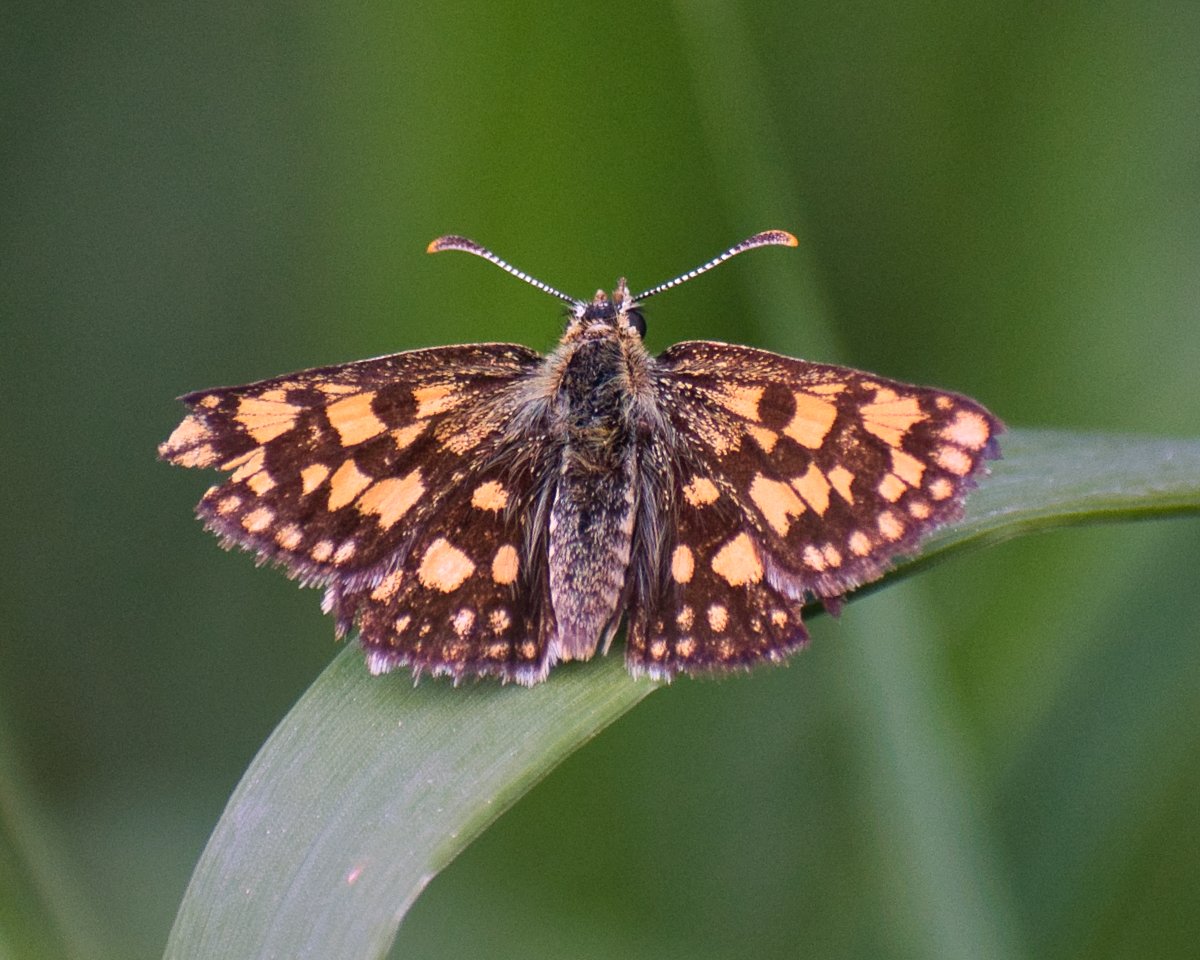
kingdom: Animalia
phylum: Arthropoda
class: Insecta
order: Lepidoptera
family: Hesperiidae
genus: Carterocephalus
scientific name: Carterocephalus palaemon
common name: Chequered Skipper
